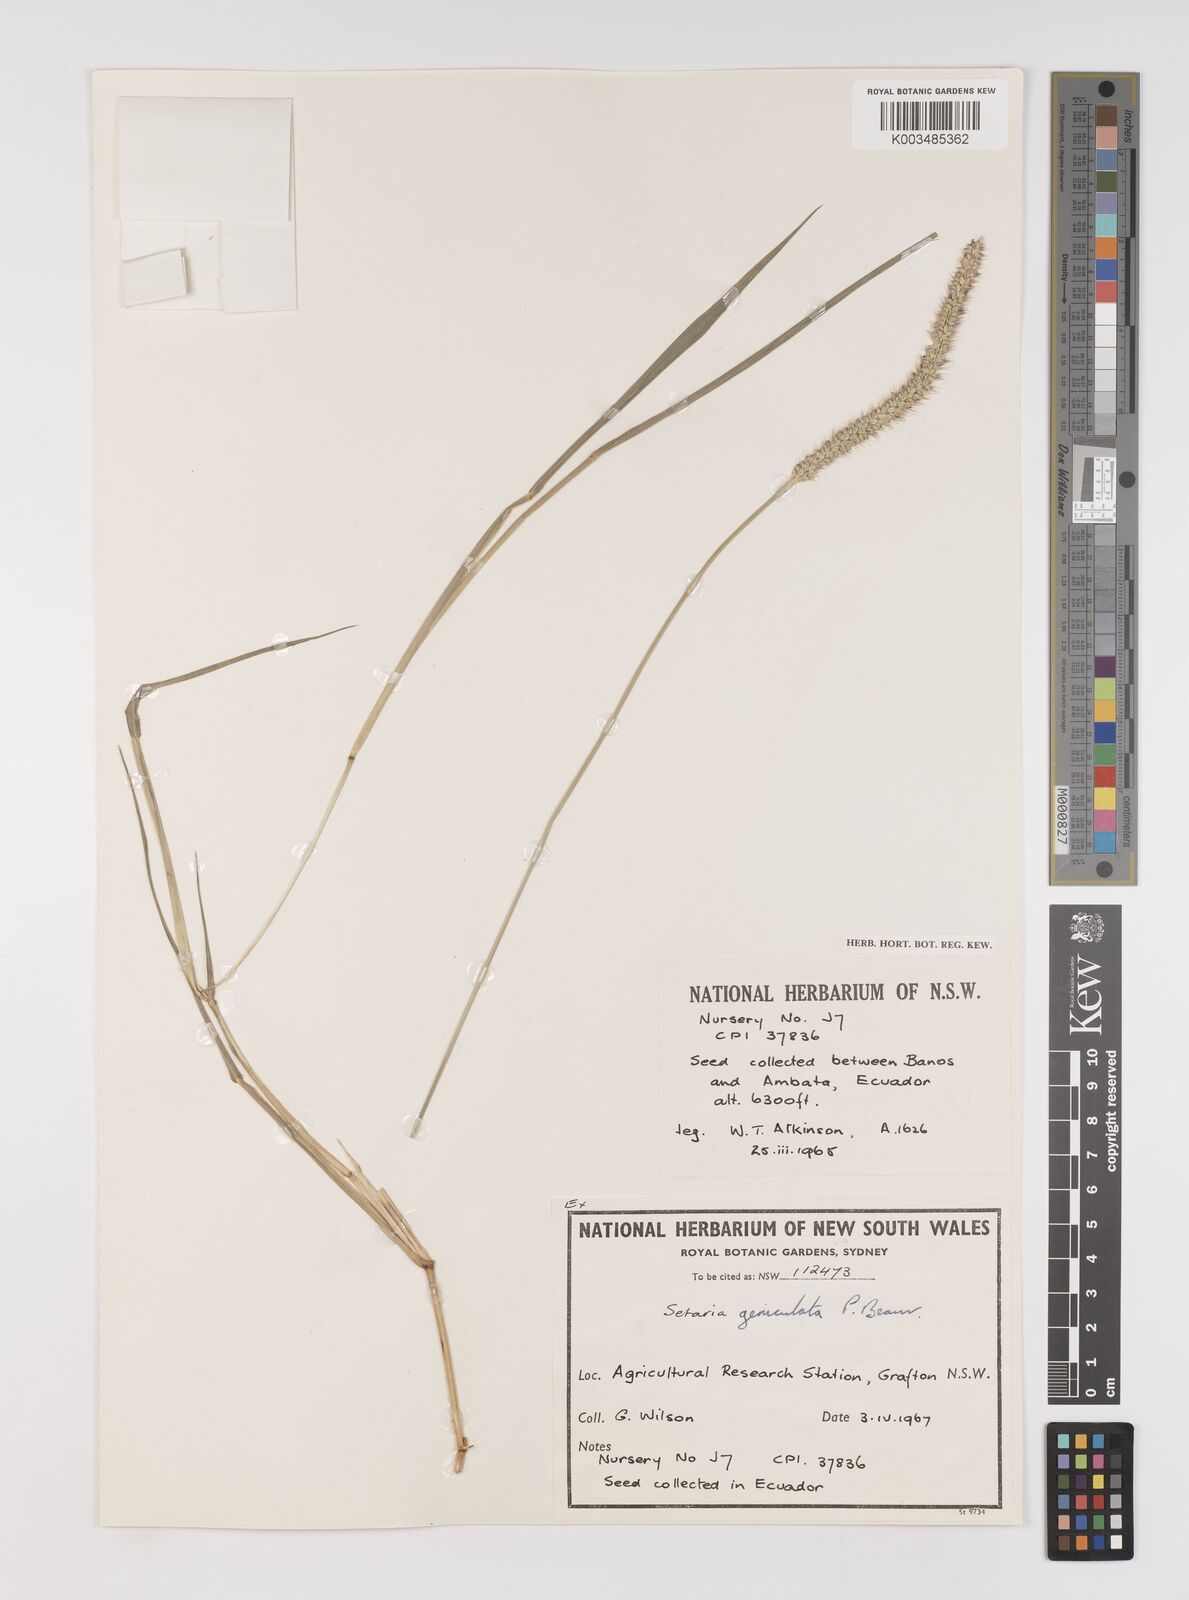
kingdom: Plantae
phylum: Tracheophyta
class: Liliopsida
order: Poales
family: Poaceae
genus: Setaria
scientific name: Setaria parviflora
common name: Knotroot bristle-grass
